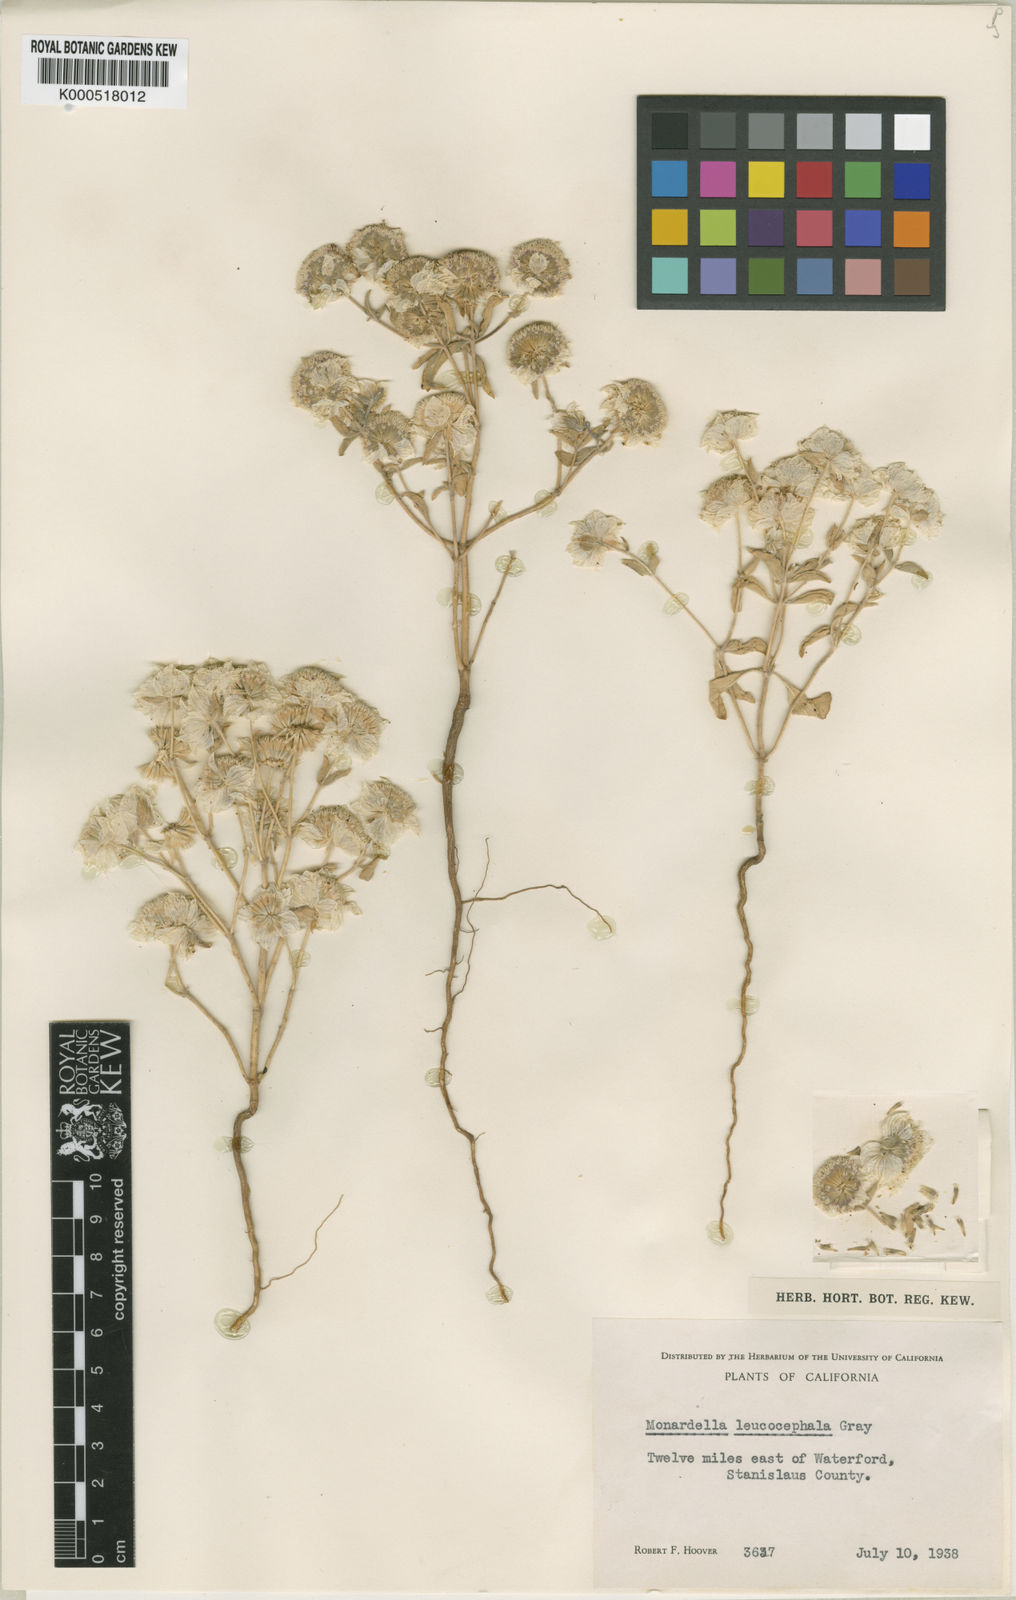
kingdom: Plantae
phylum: Tracheophyta
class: Magnoliopsida
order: Lamiales
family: Lamiaceae
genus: Monardella
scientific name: Monardella leucocephala
